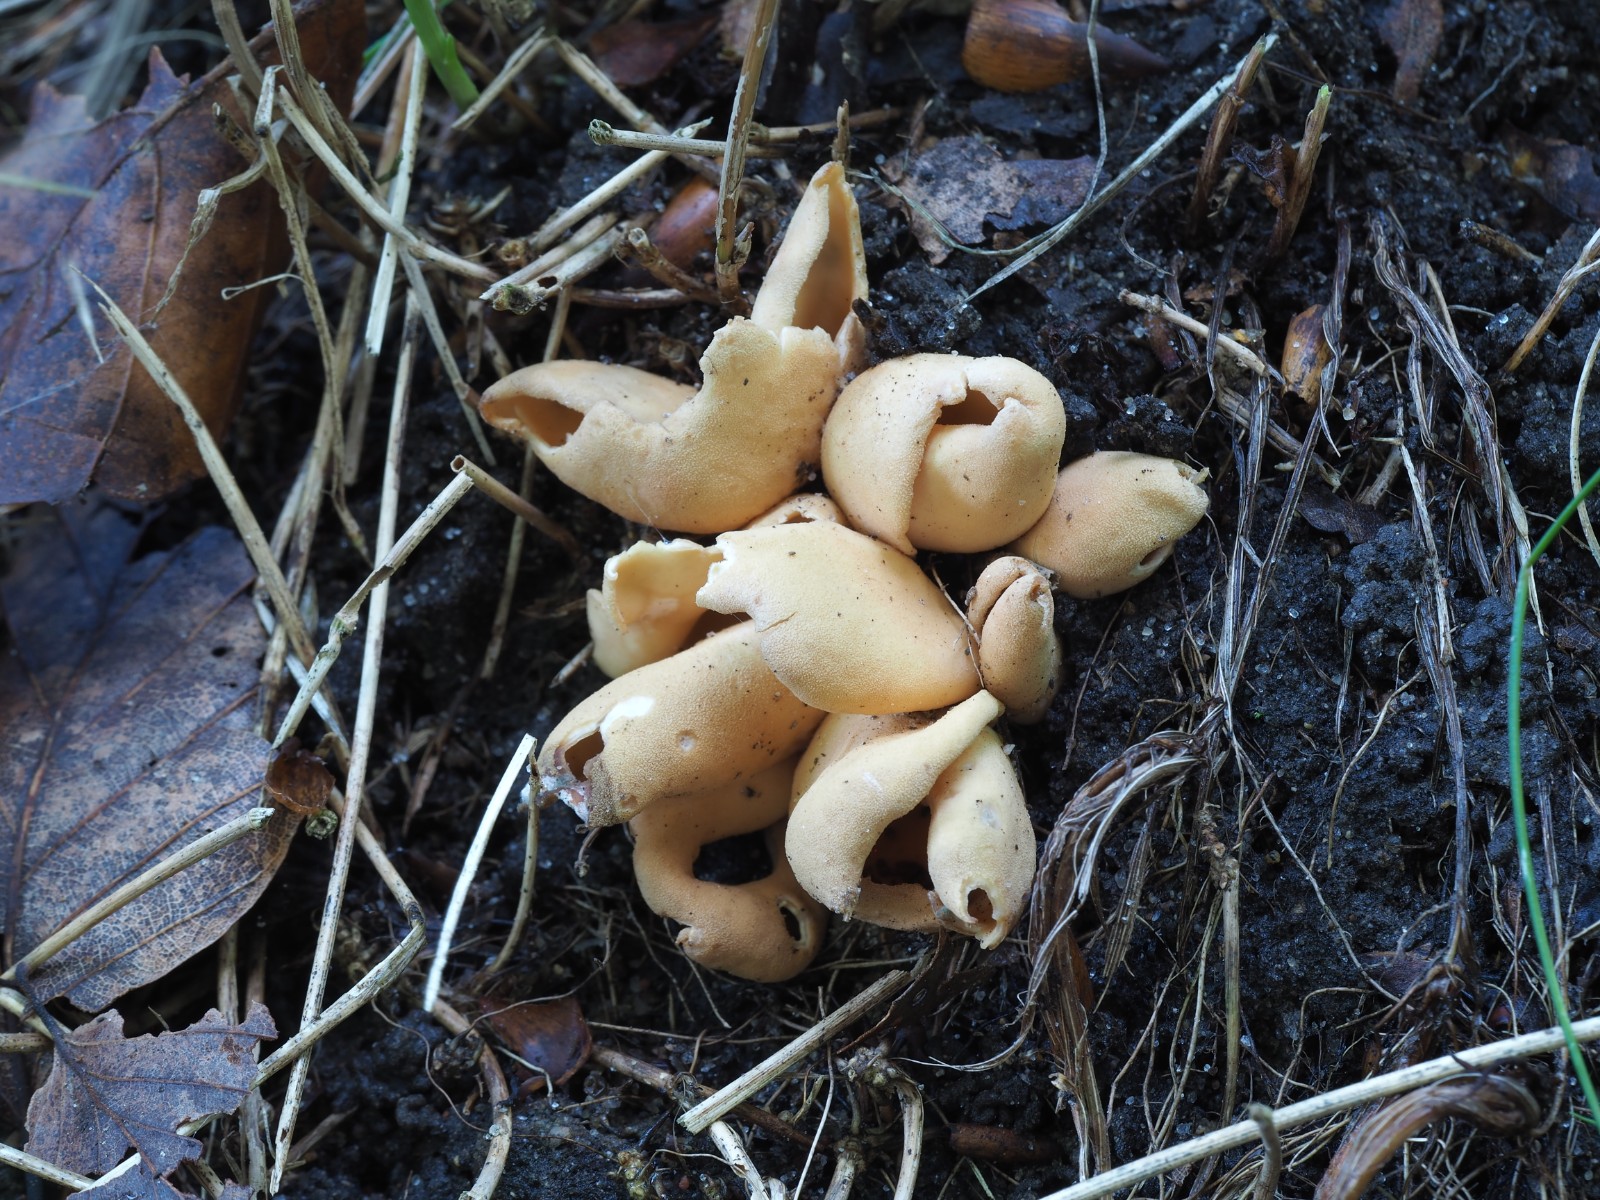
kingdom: Fungi
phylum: Ascomycota
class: Pezizomycetes
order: Pezizales
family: Otideaceae
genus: Otidea
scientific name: Otidea onotica
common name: æsel-ørebæger
